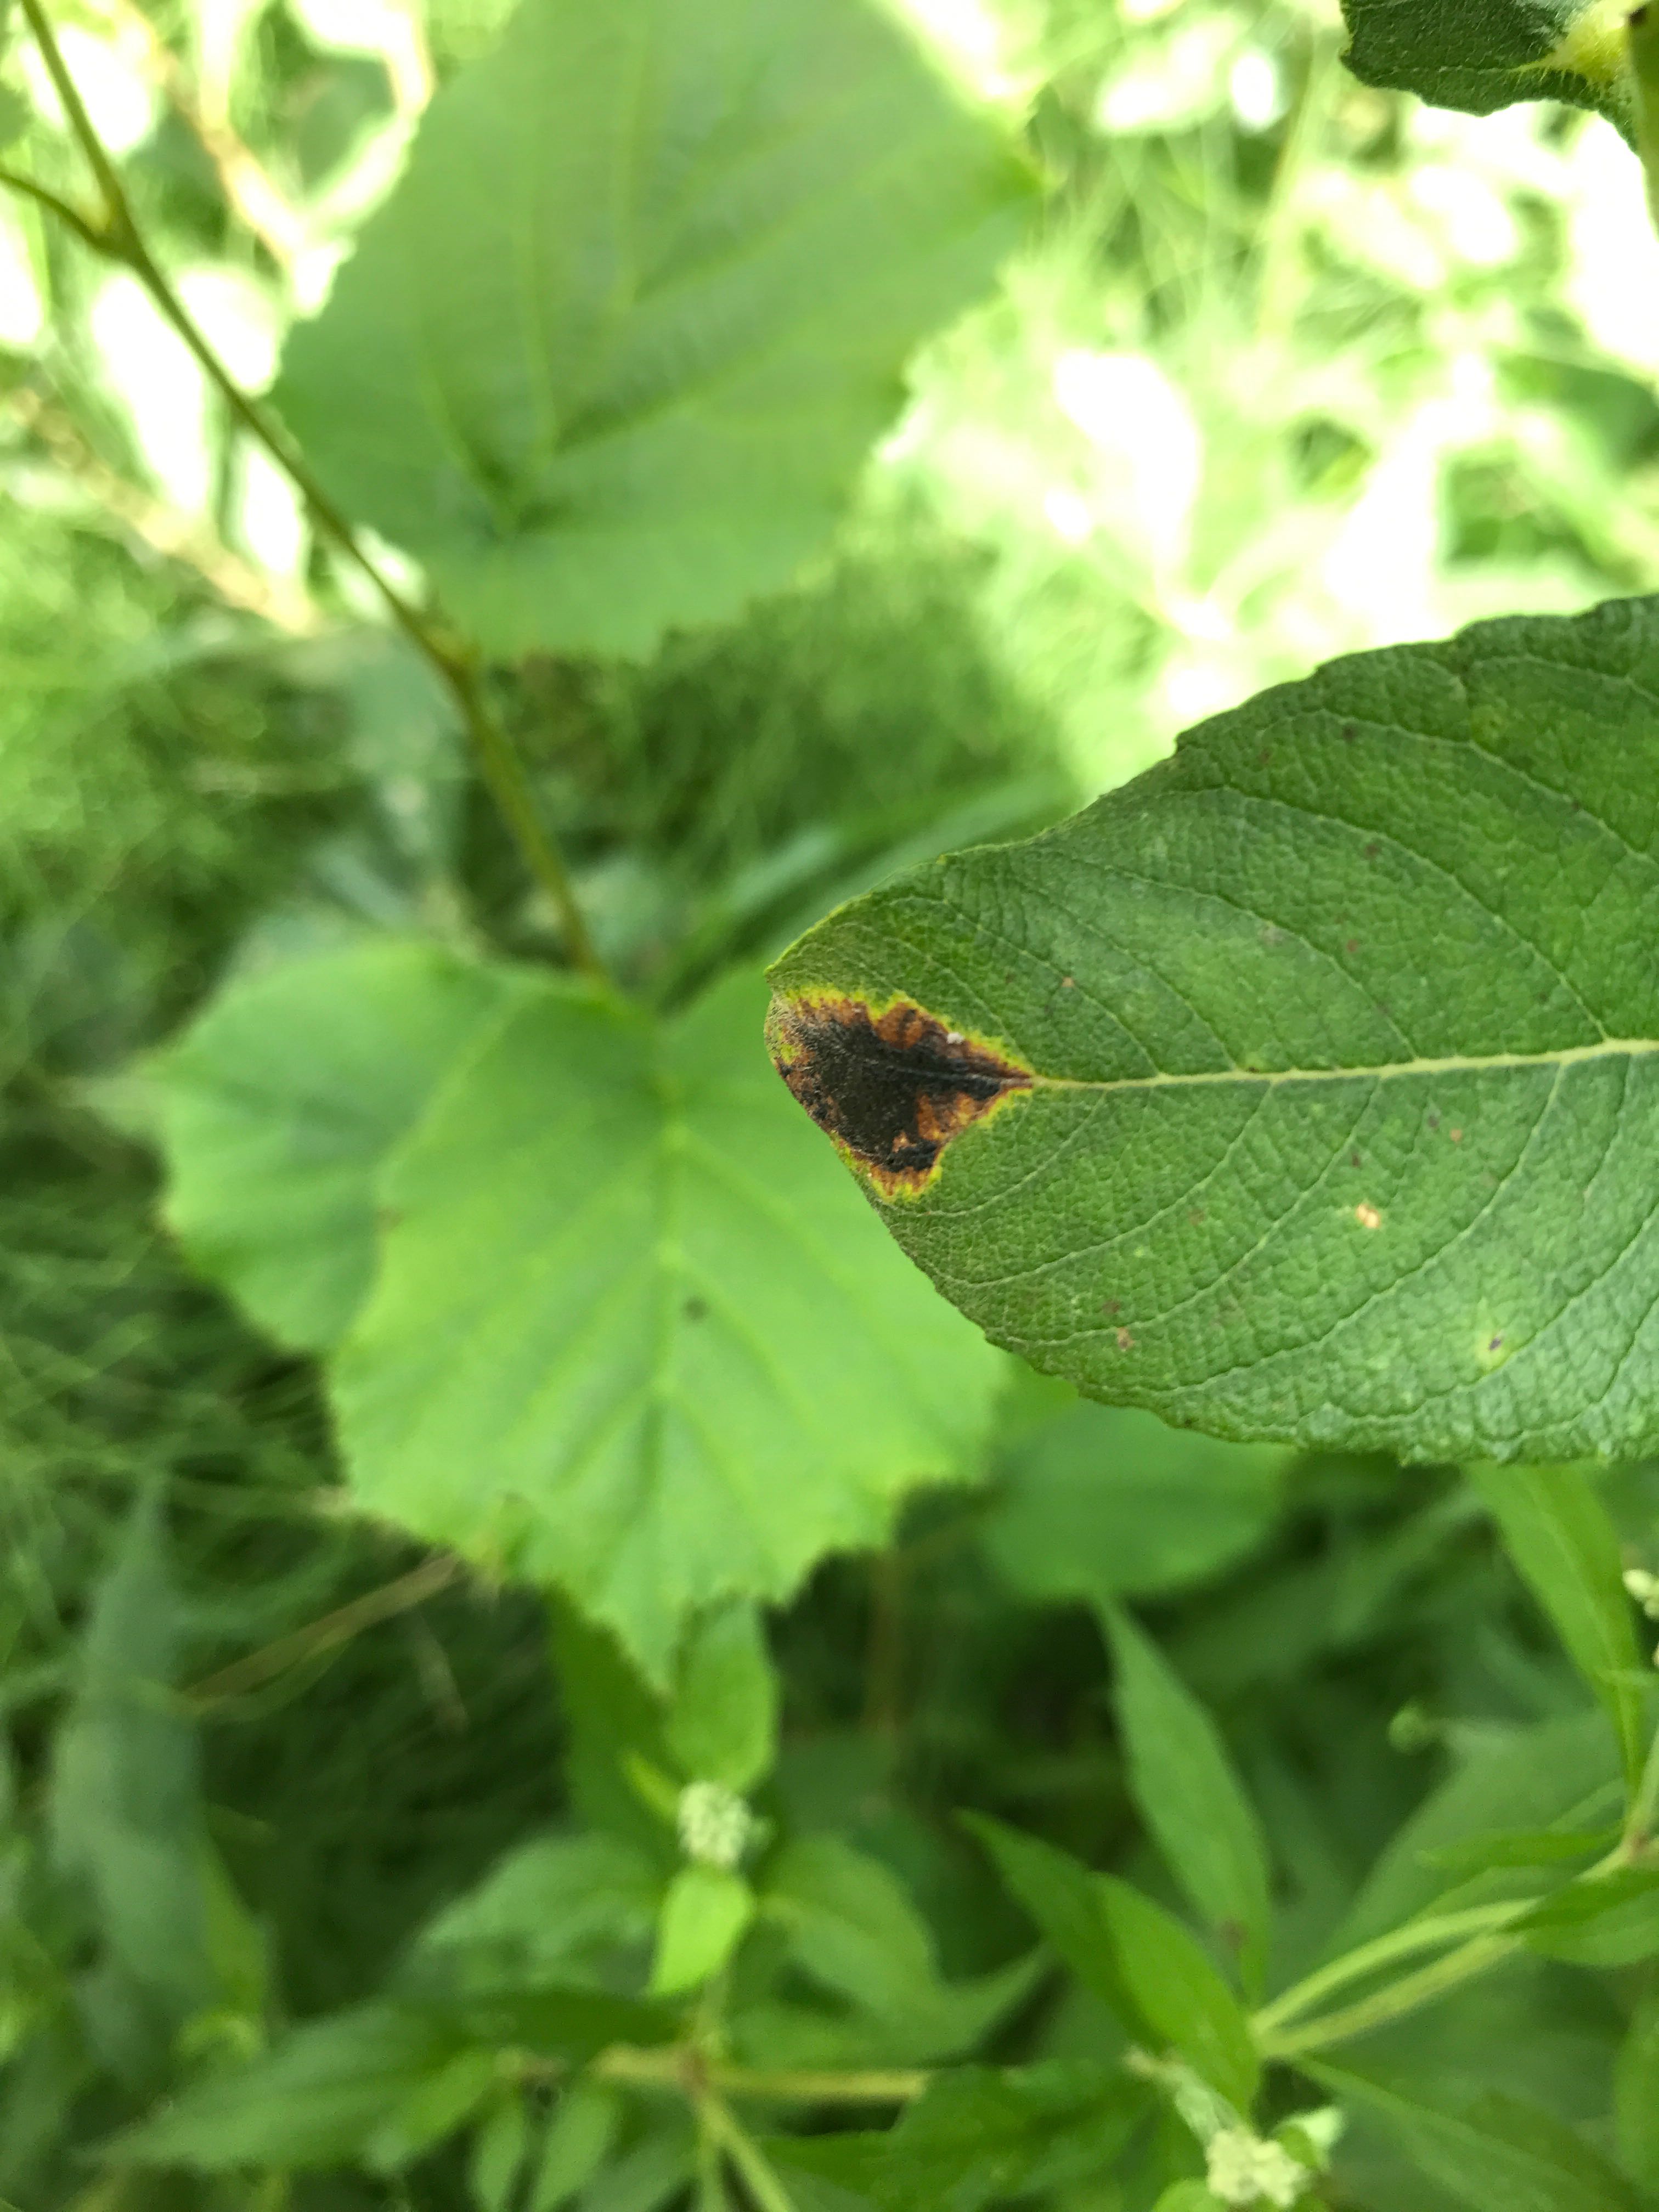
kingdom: Fungi
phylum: Ascomycota
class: Leotiomycetes
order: Rhytismatales
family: Rhytismataceae
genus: Rhytisma
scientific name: Rhytisma salicinum
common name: pile-rynkeplet
